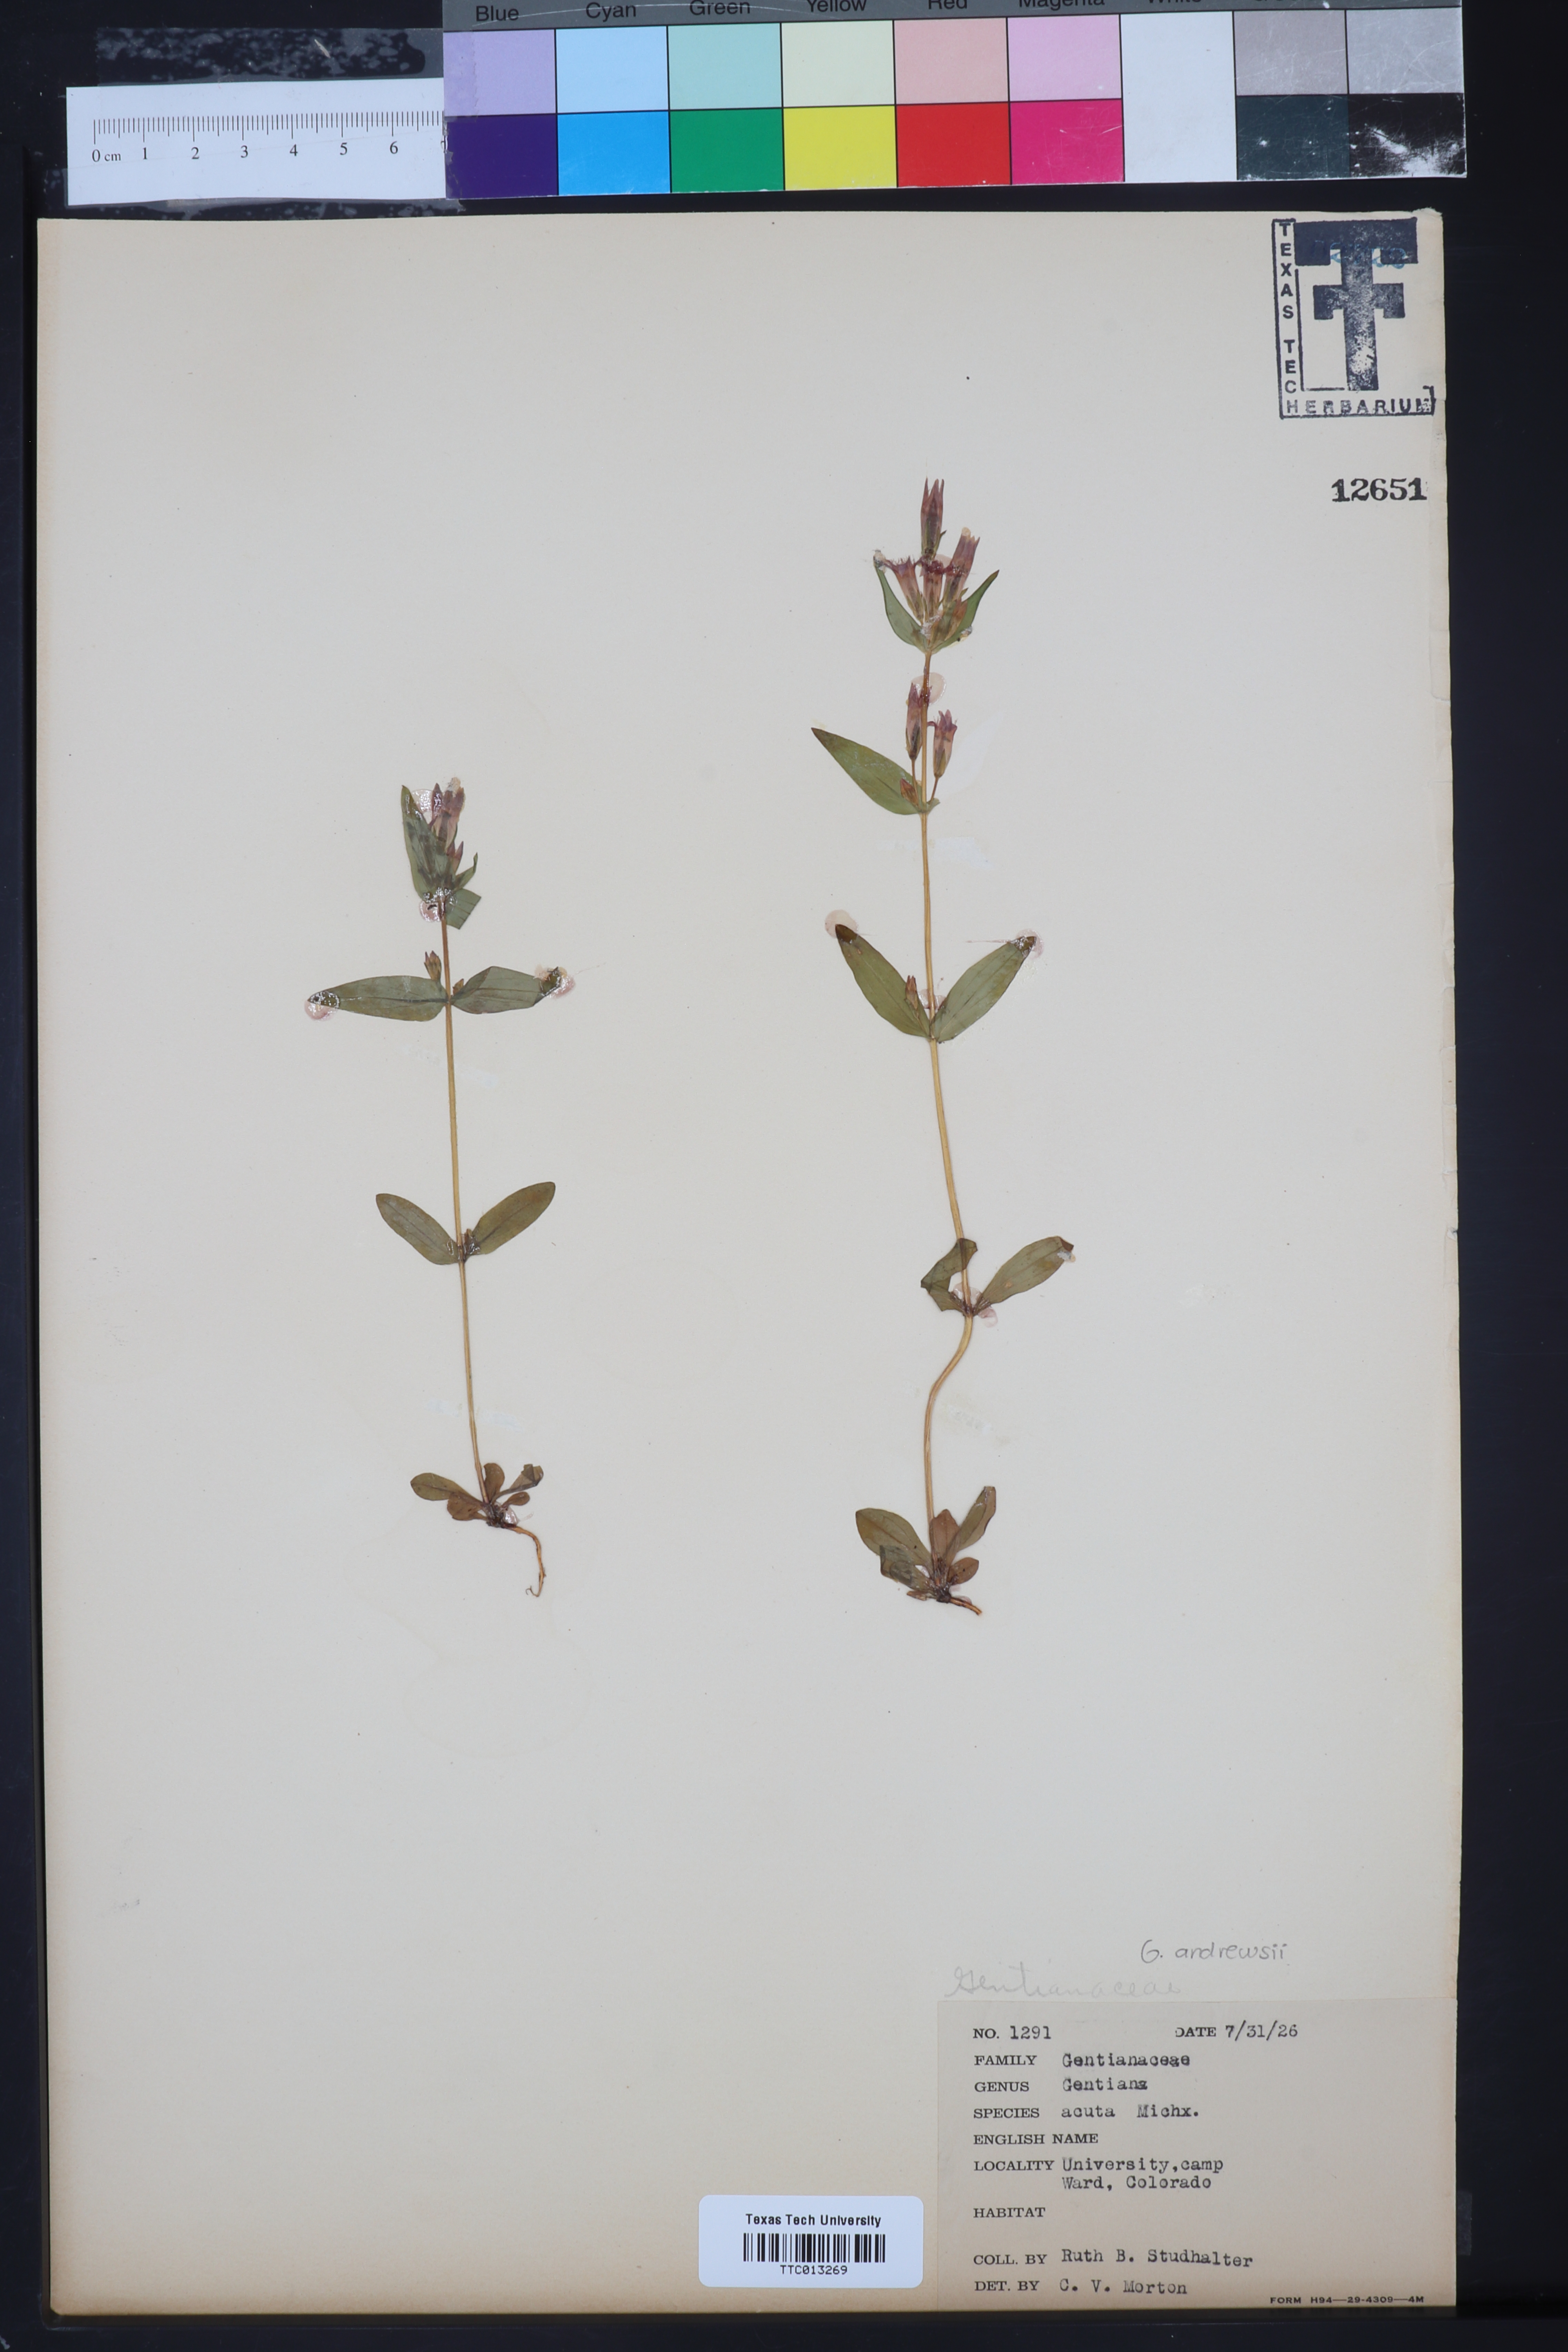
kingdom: Plantae
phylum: Tracheophyta
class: Magnoliopsida
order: Gentianales
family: Gentianaceae
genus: Gentianella
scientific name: Gentianella amarella
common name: Autumn gentian
